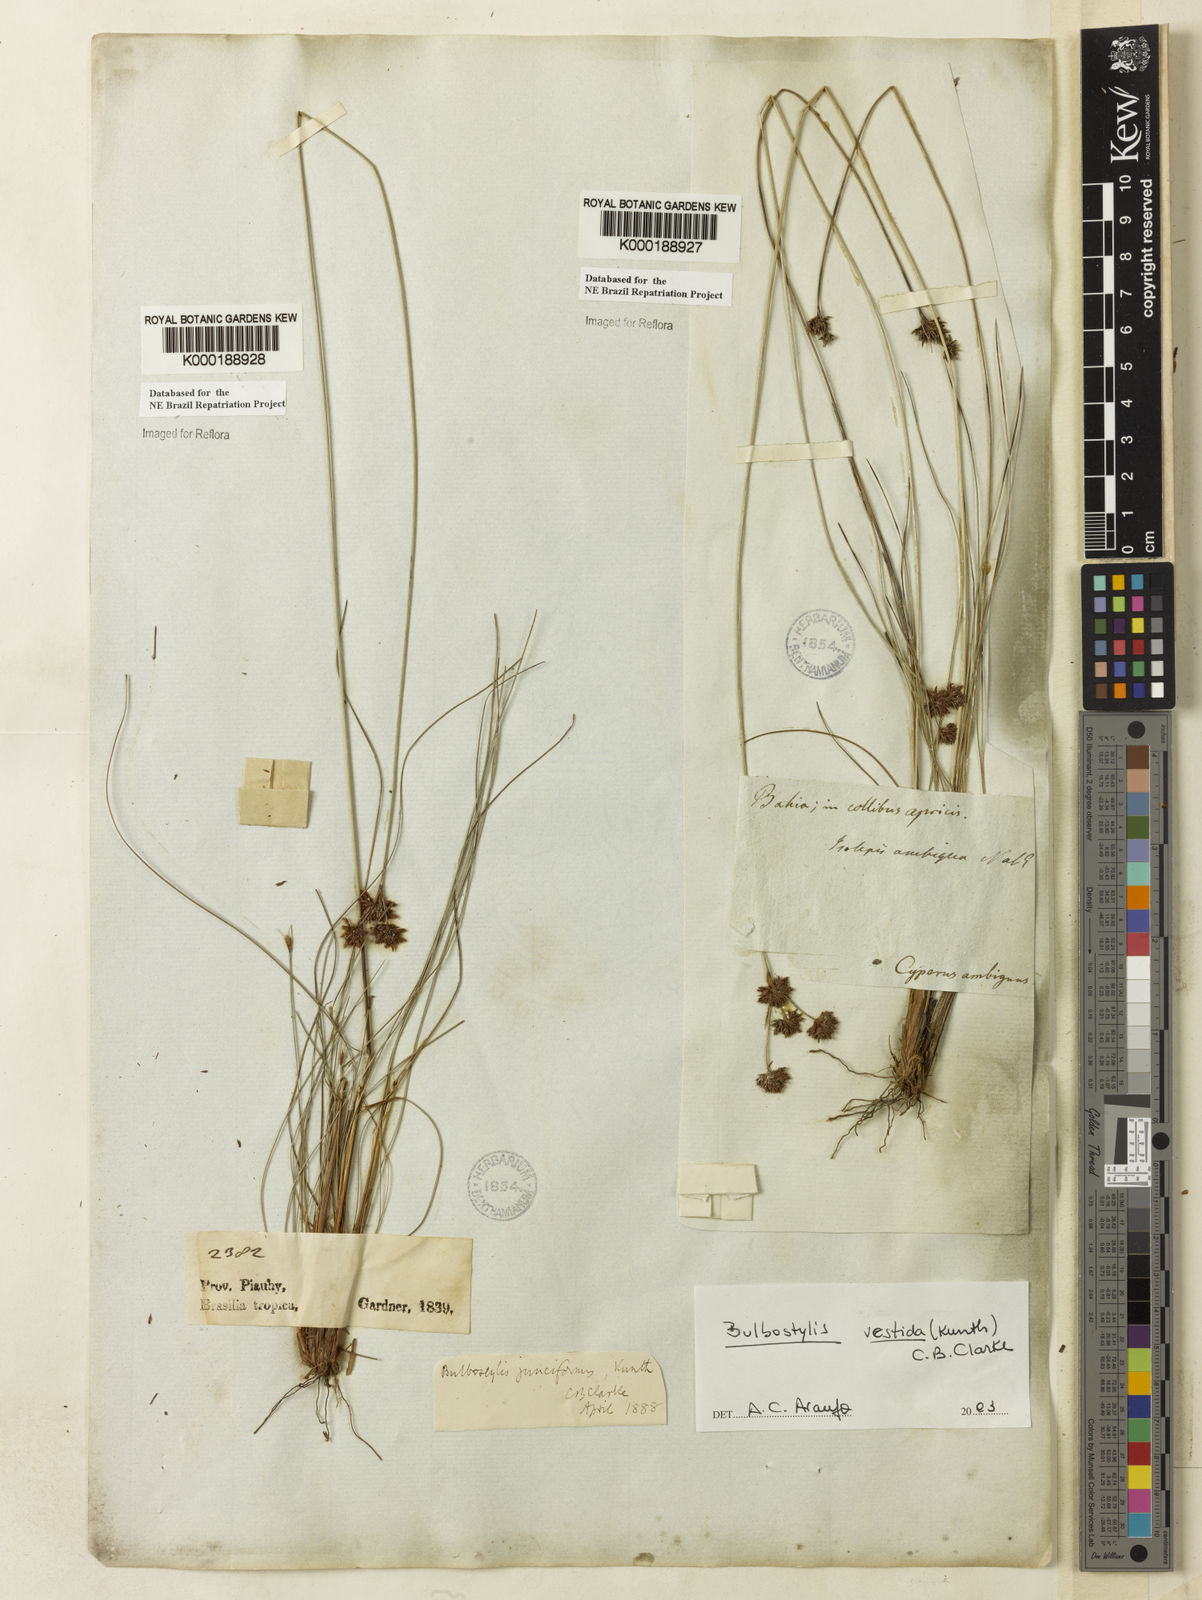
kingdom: Plantae
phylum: Tracheophyta
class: Liliopsida
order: Poales
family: Cyperaceae
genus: Bulbostylis
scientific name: Bulbostylis vestita
